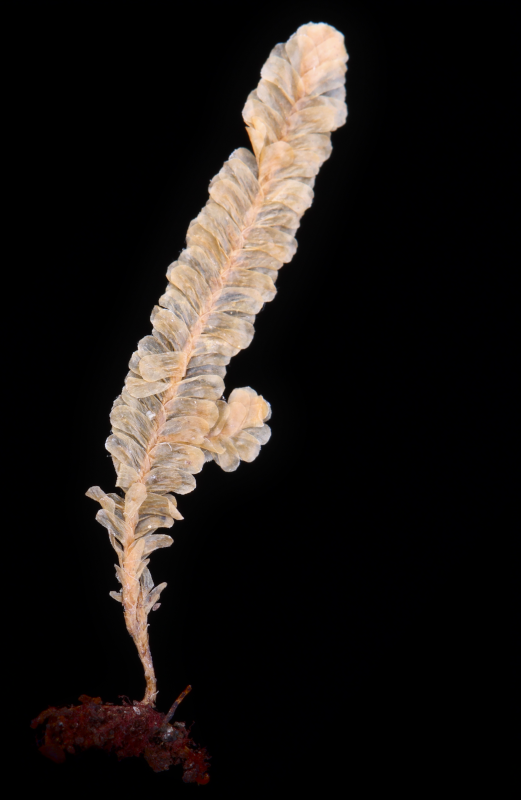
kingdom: Plantae
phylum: Bryophyta
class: Bryopsida
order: Hypnales
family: Neckeraceae
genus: Circulifolium
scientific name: Circulifolium microdendron
